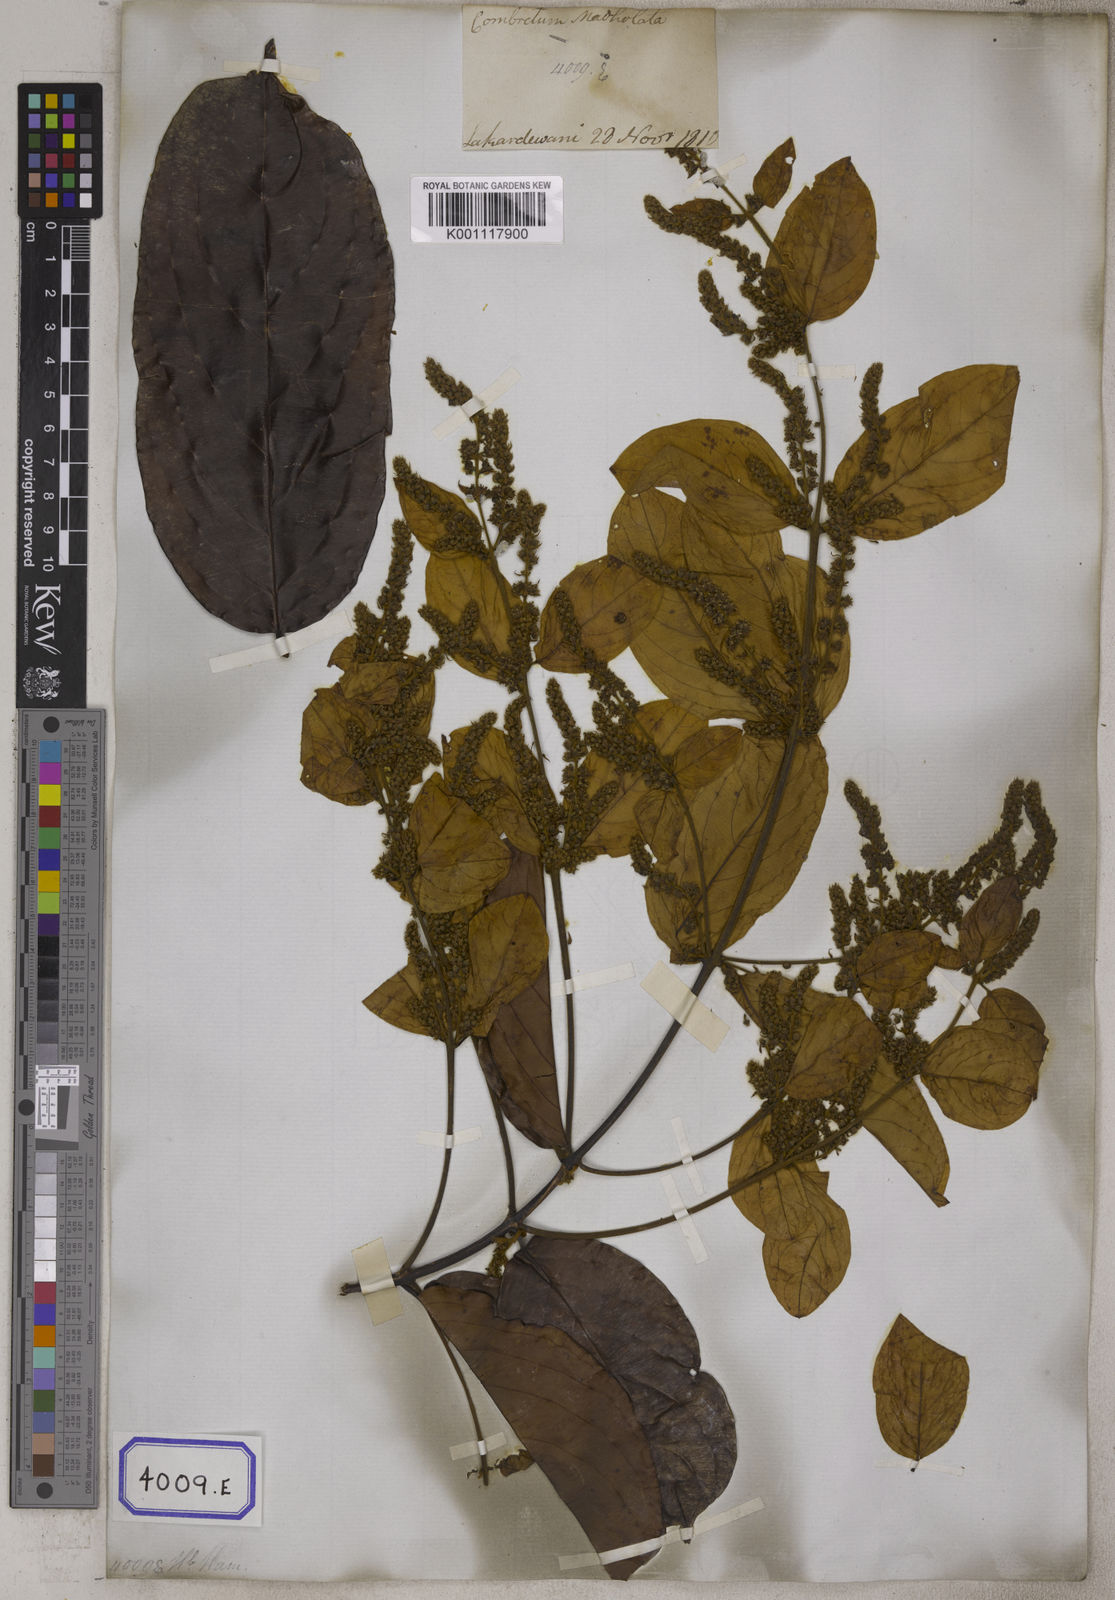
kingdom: Plantae
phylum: Tracheophyta
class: Magnoliopsida
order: Myrtales
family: Combretaceae
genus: Combretum
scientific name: Combretum decandrum
